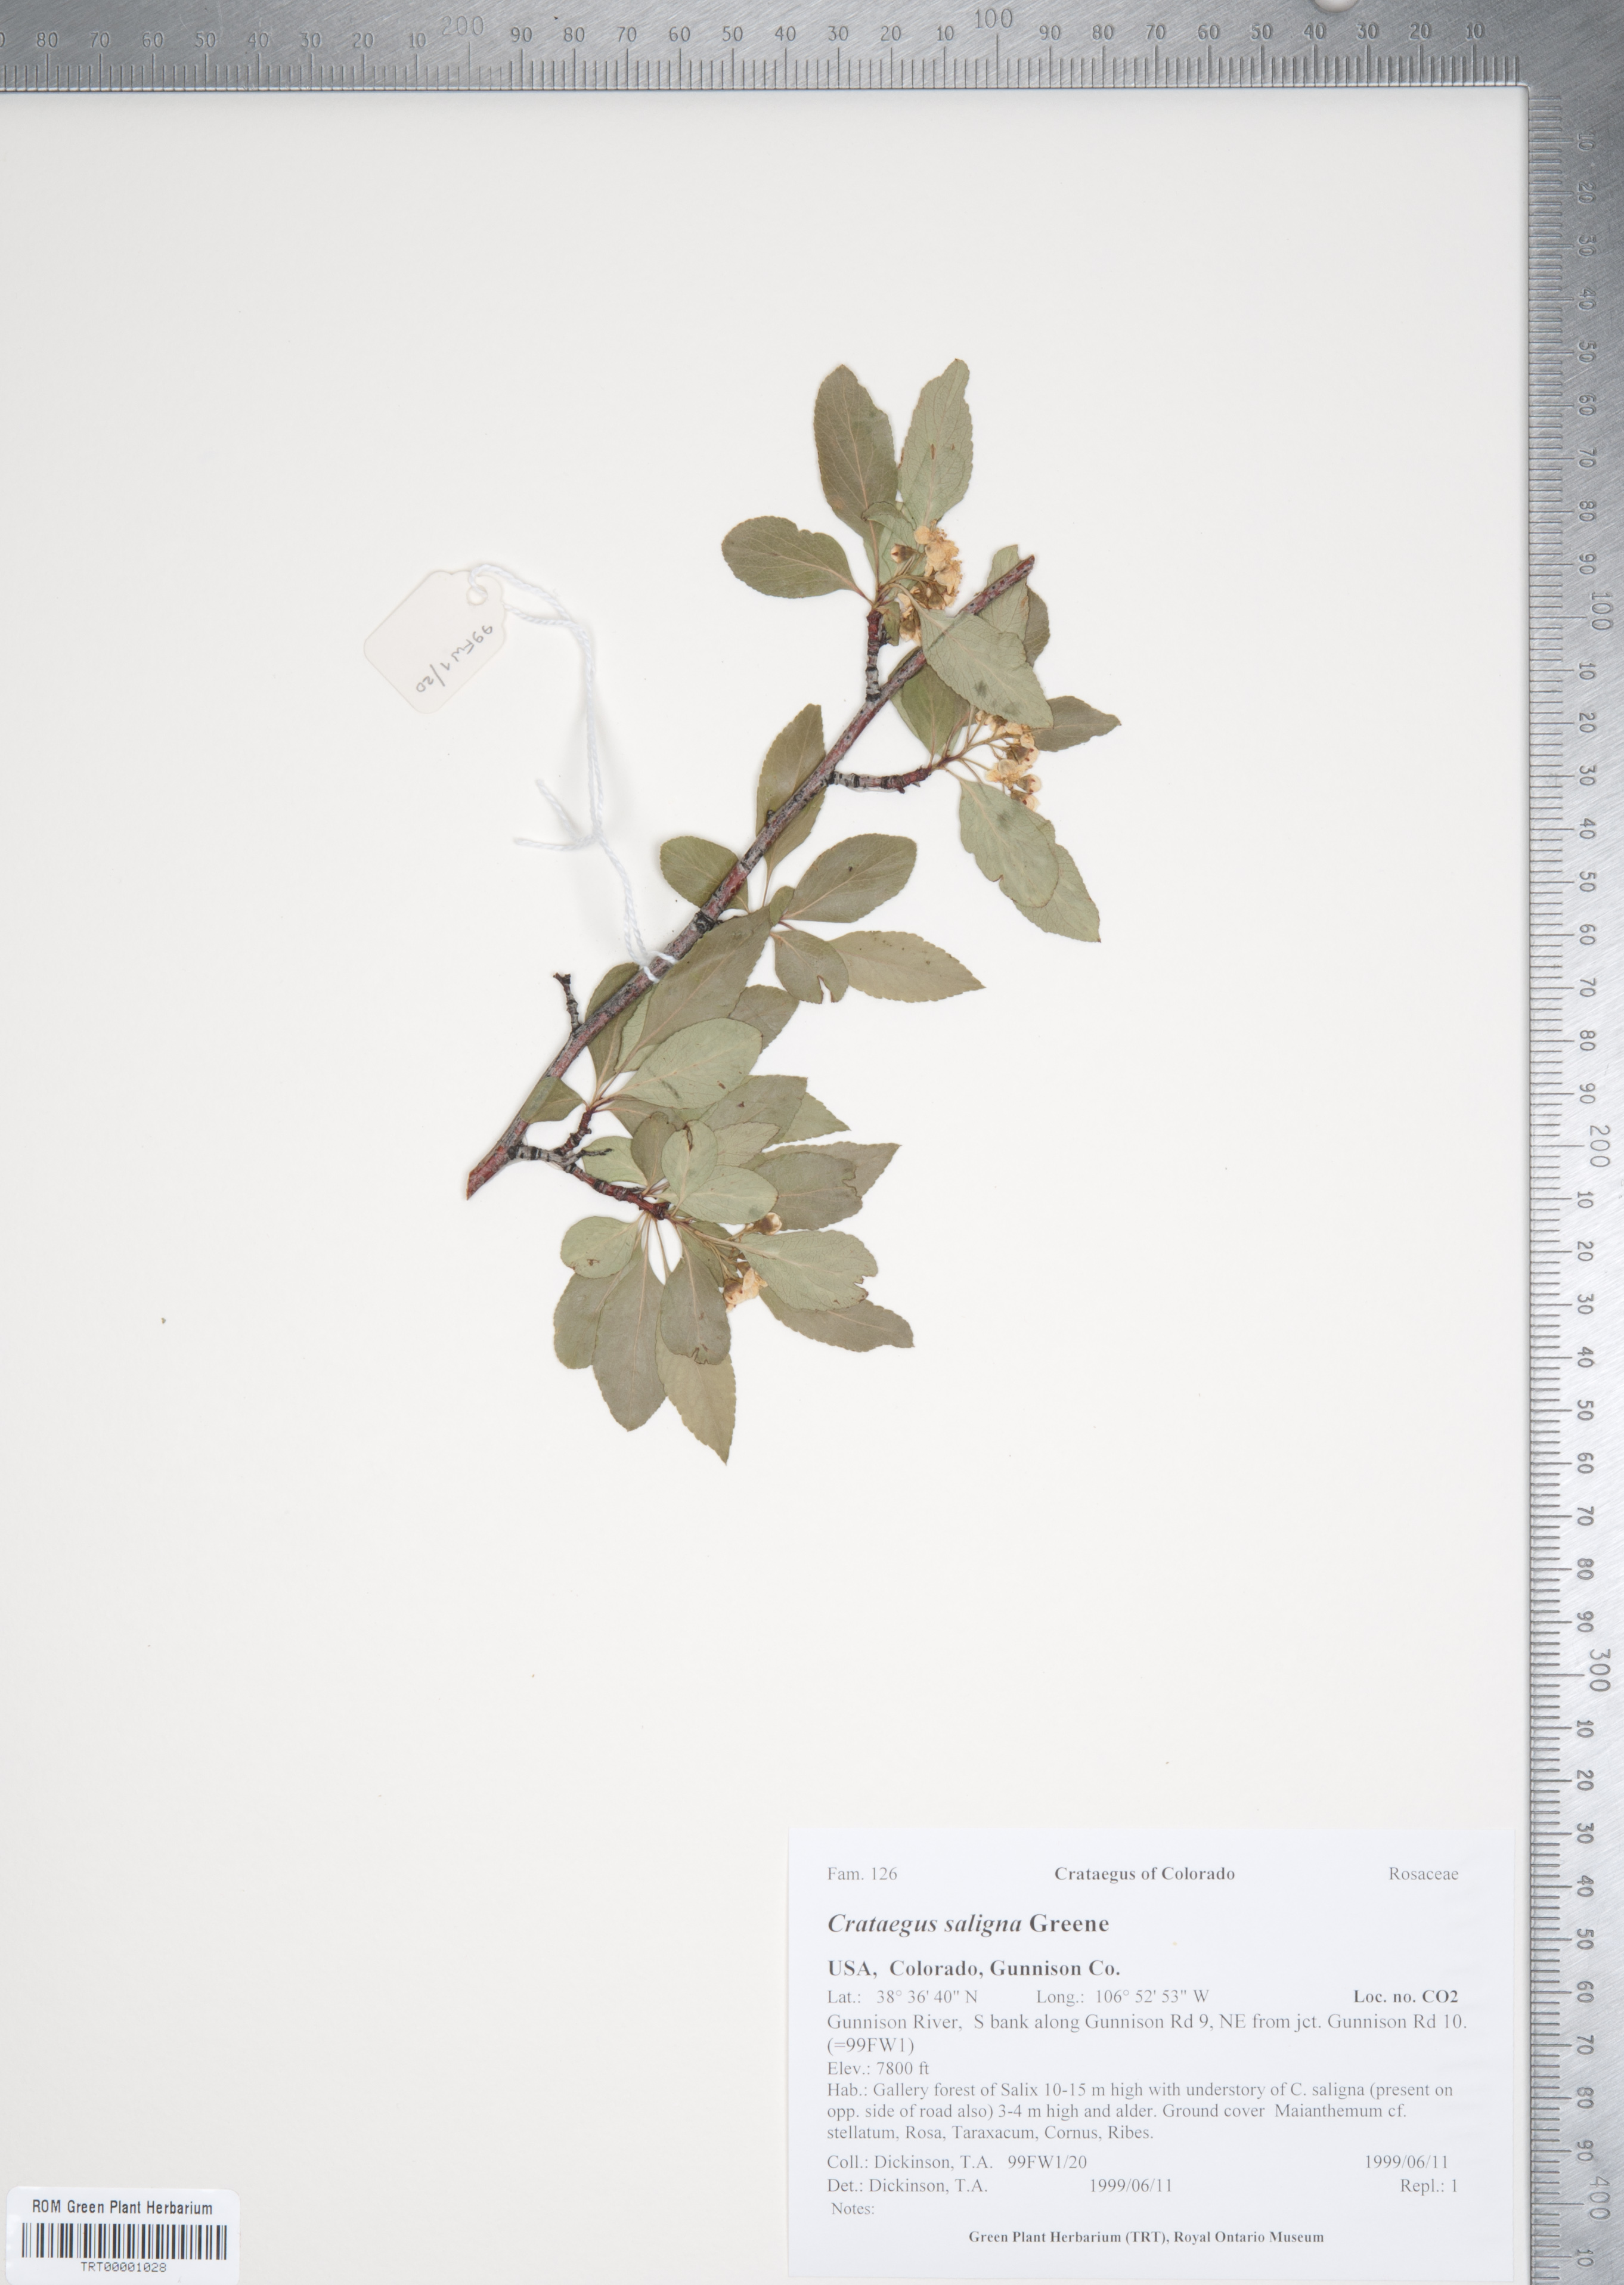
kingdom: Plantae
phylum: Tracheophyta
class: Magnoliopsida
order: Rosales
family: Rosaceae
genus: Crataegus
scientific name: Crataegus saligna
